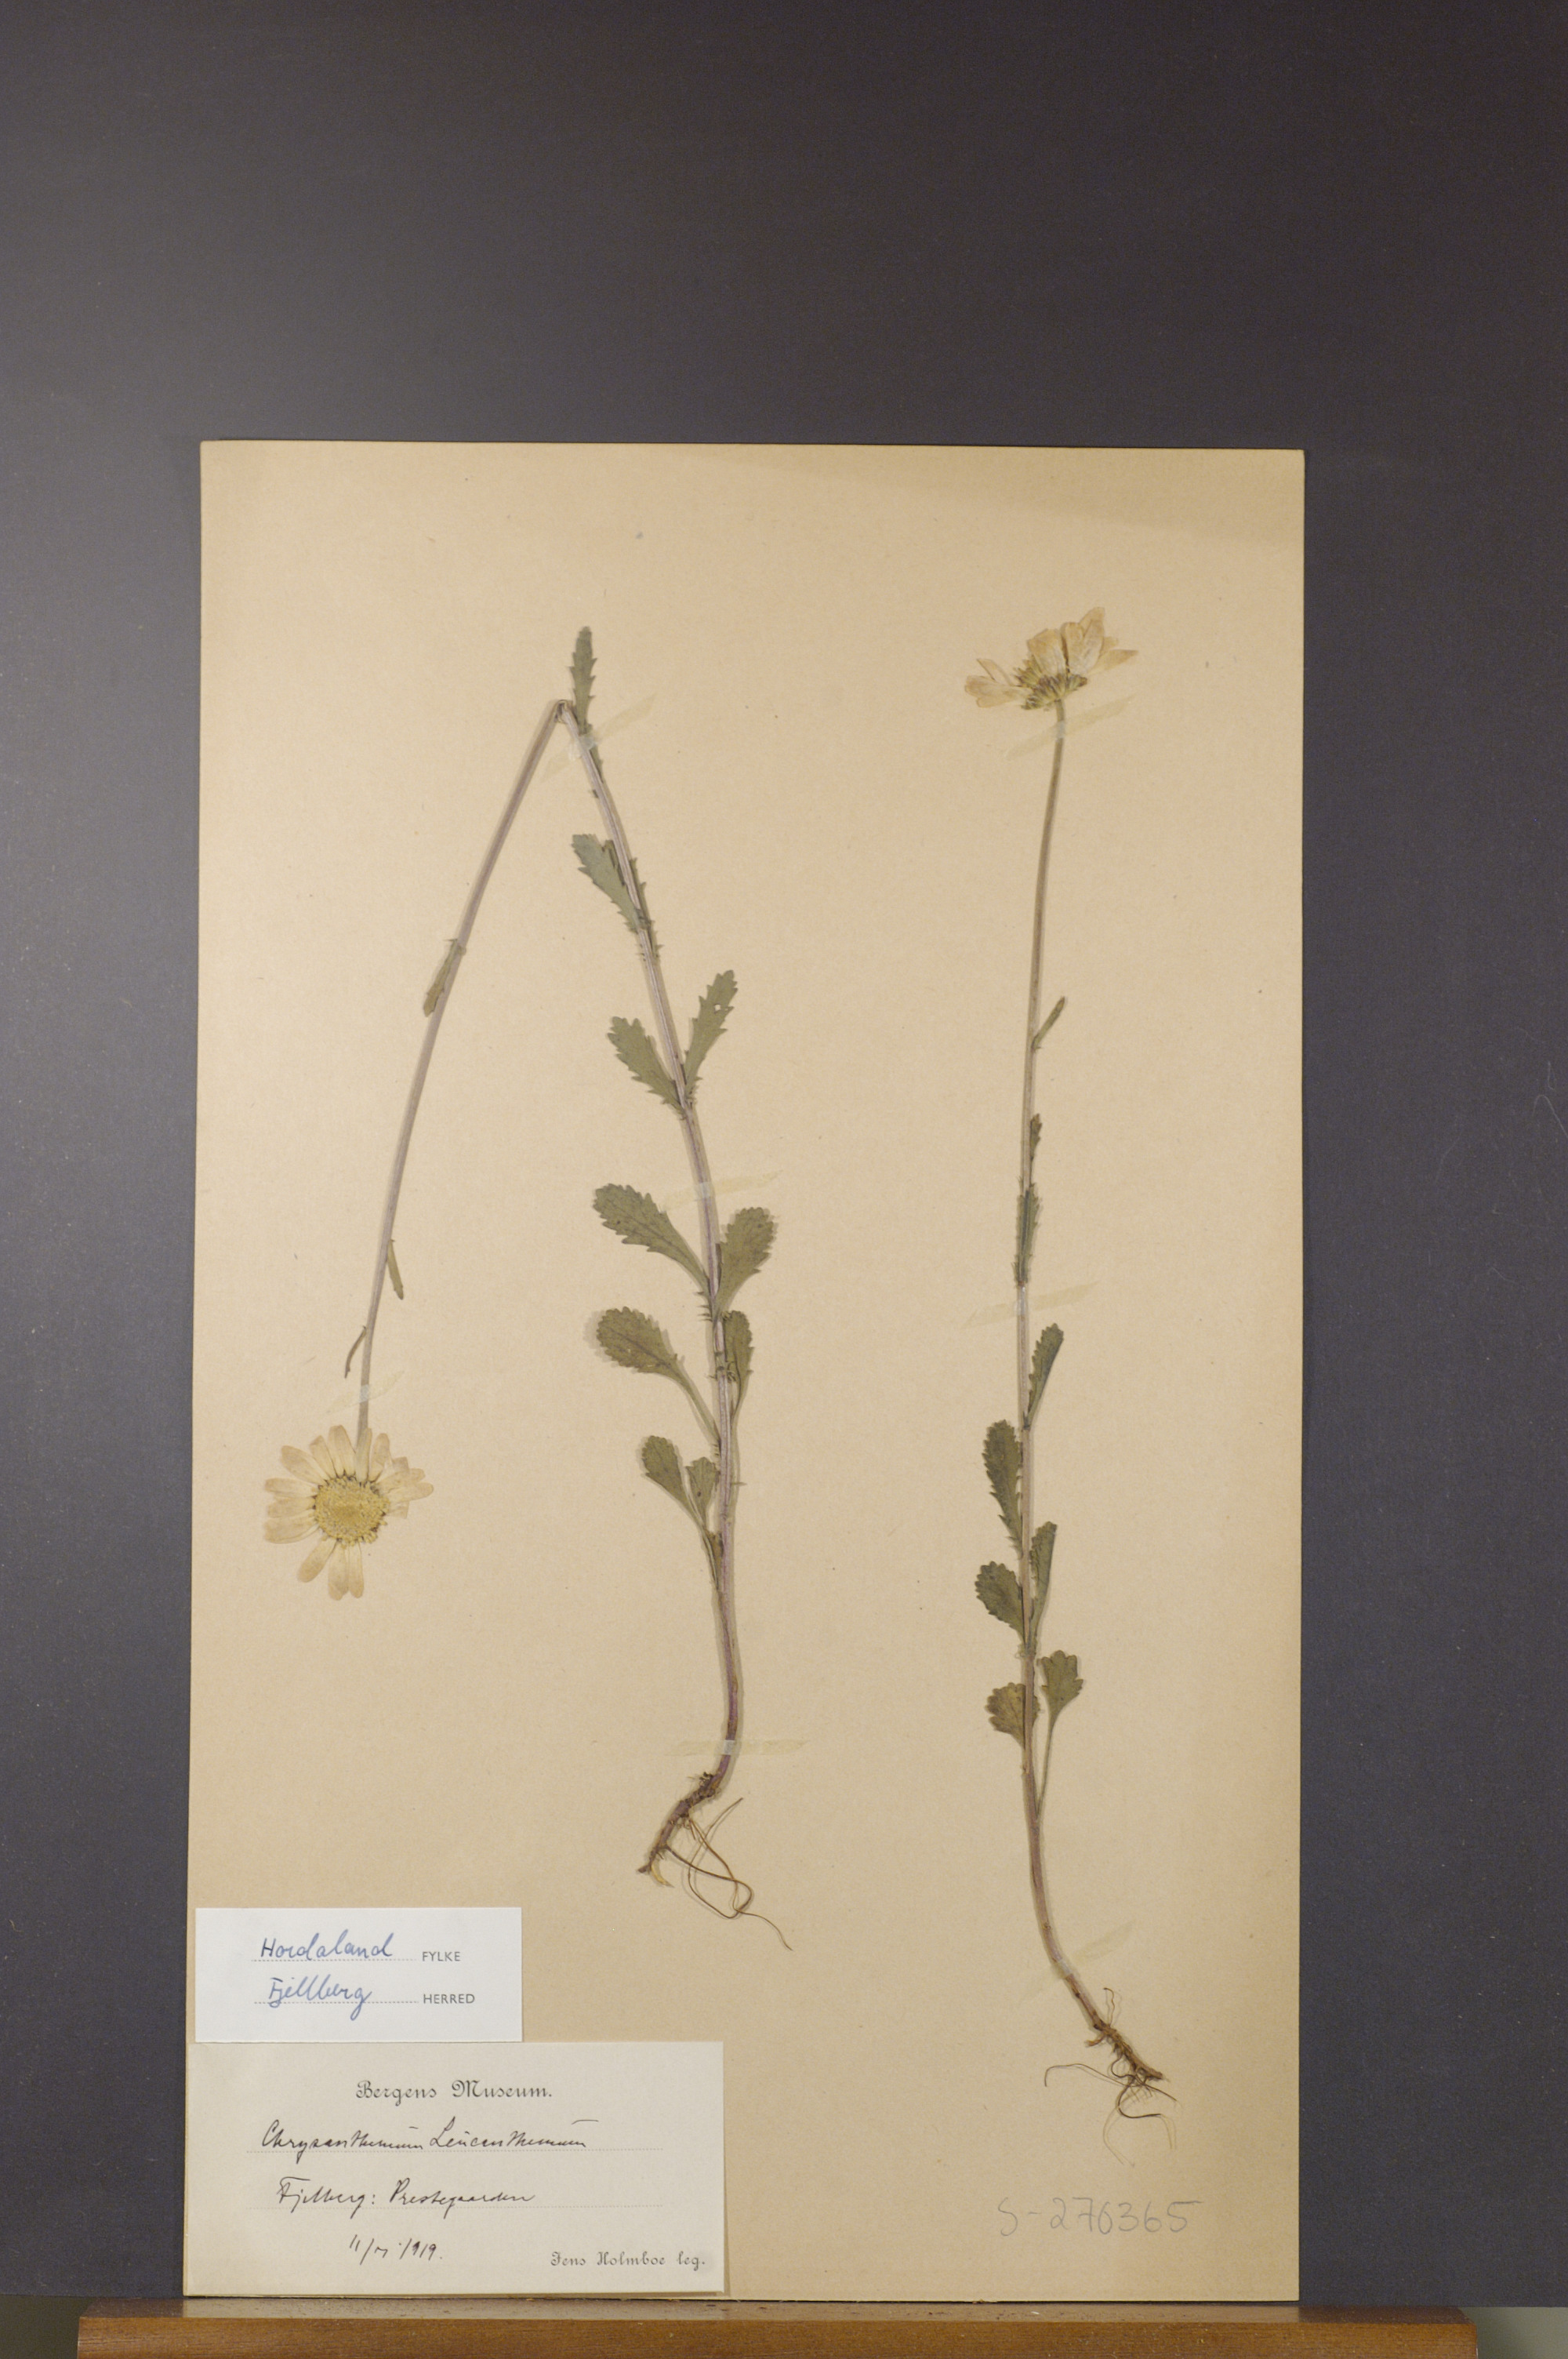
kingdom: Plantae
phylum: Tracheophyta
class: Magnoliopsida
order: Asterales
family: Asteraceae
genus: Leucanthemum
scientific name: Leucanthemum vulgare
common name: Oxeye daisy
